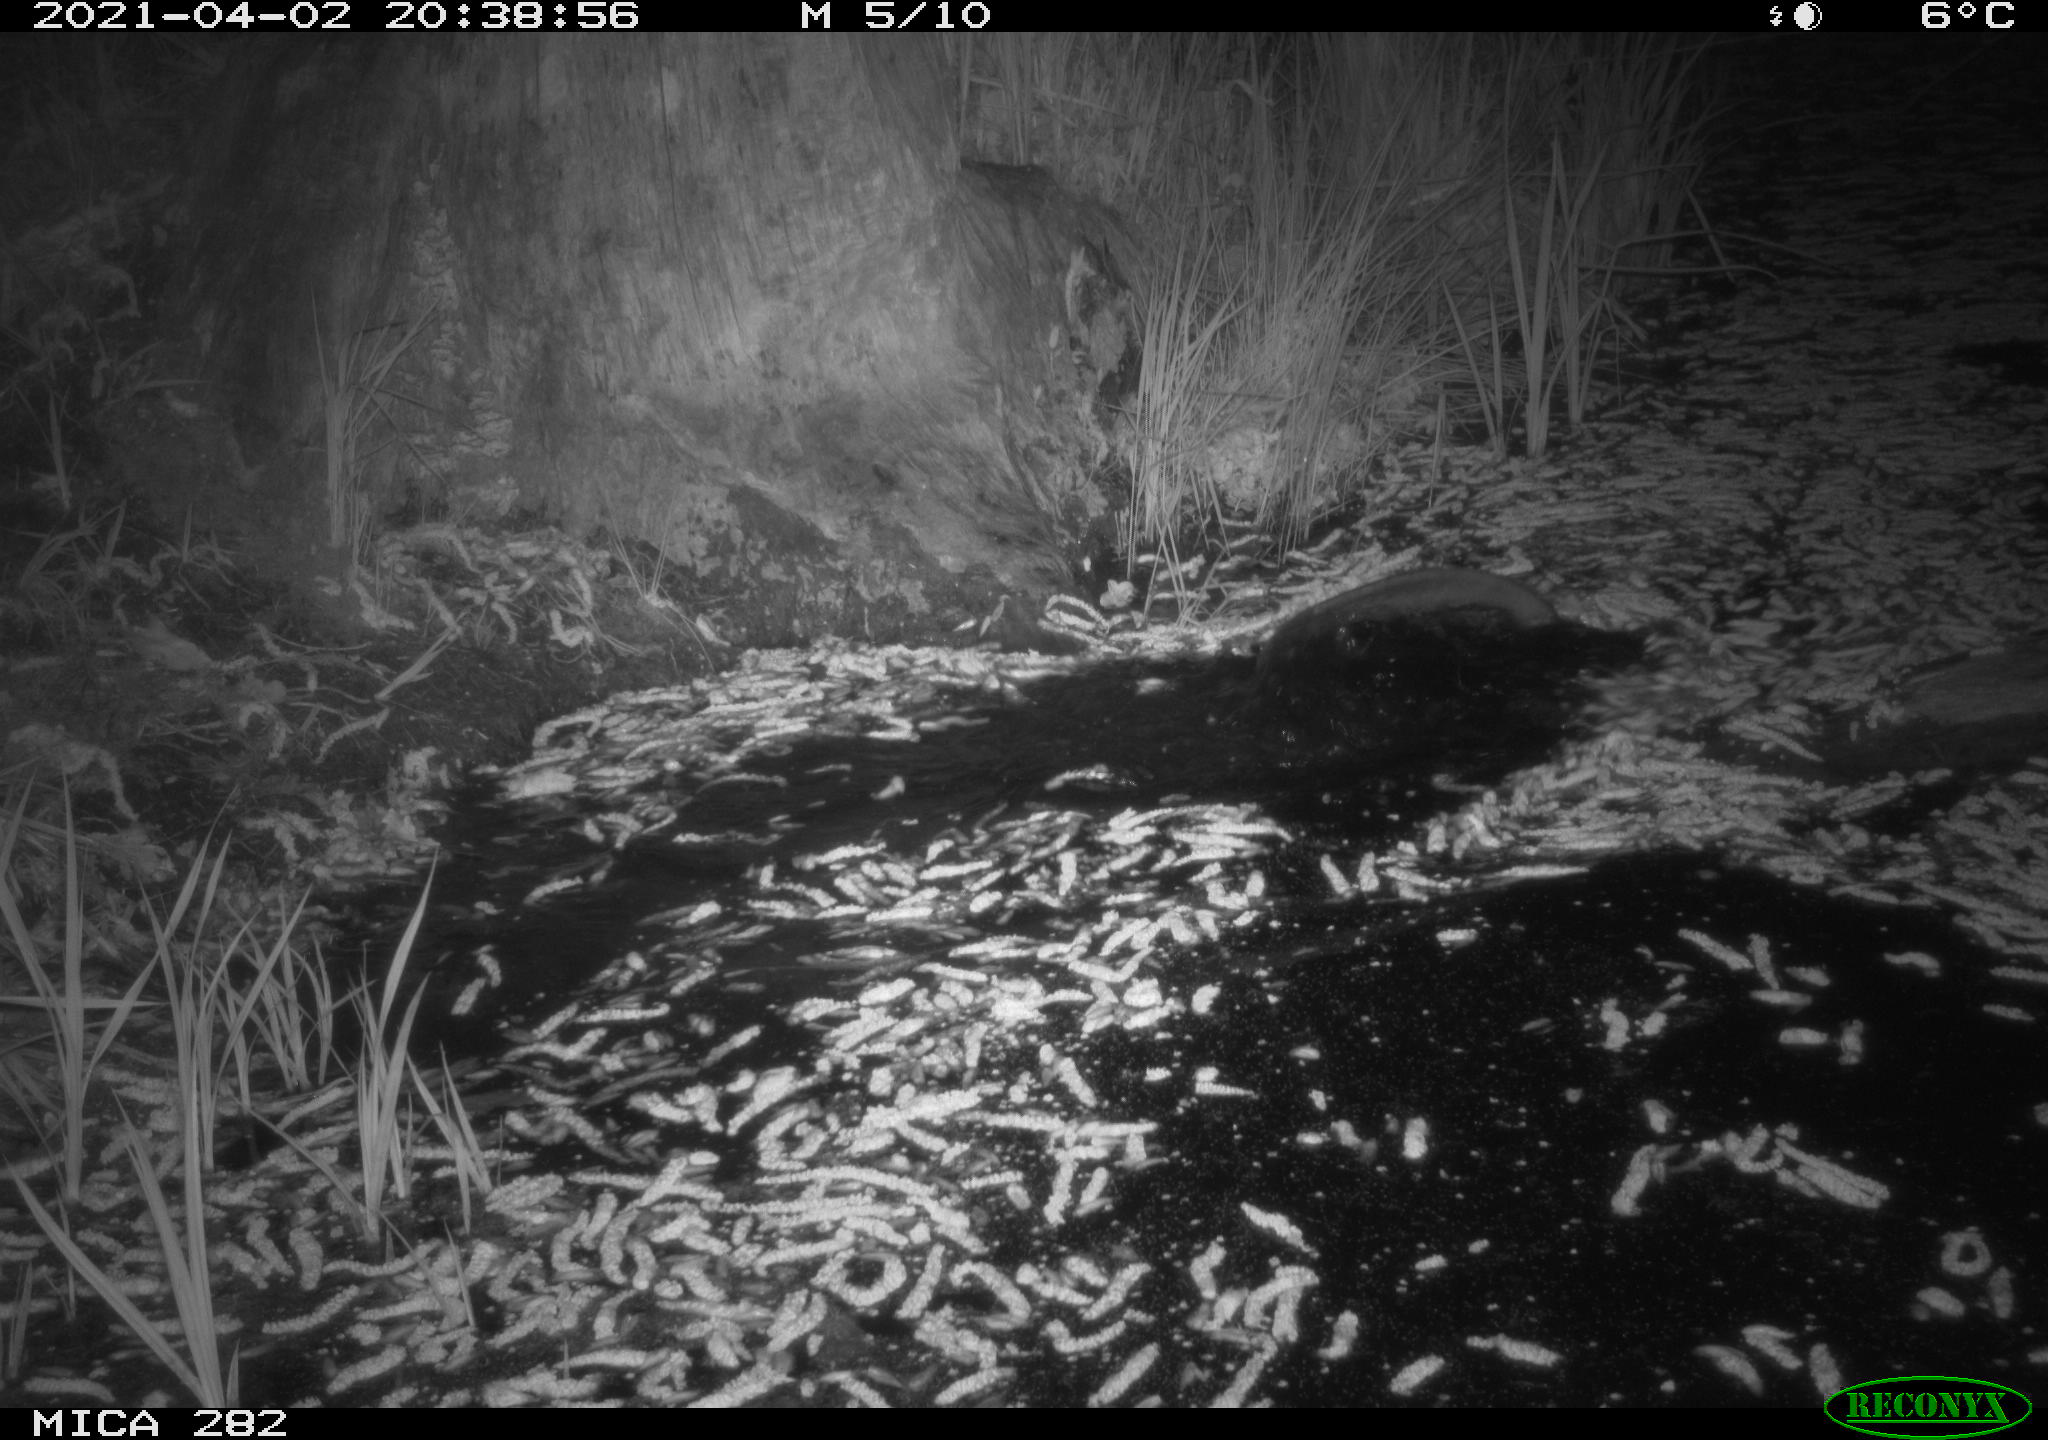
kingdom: Animalia
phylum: Chordata
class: Mammalia
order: Rodentia
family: Castoridae
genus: Castor
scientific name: Castor fiber
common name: Eurasian beaver
